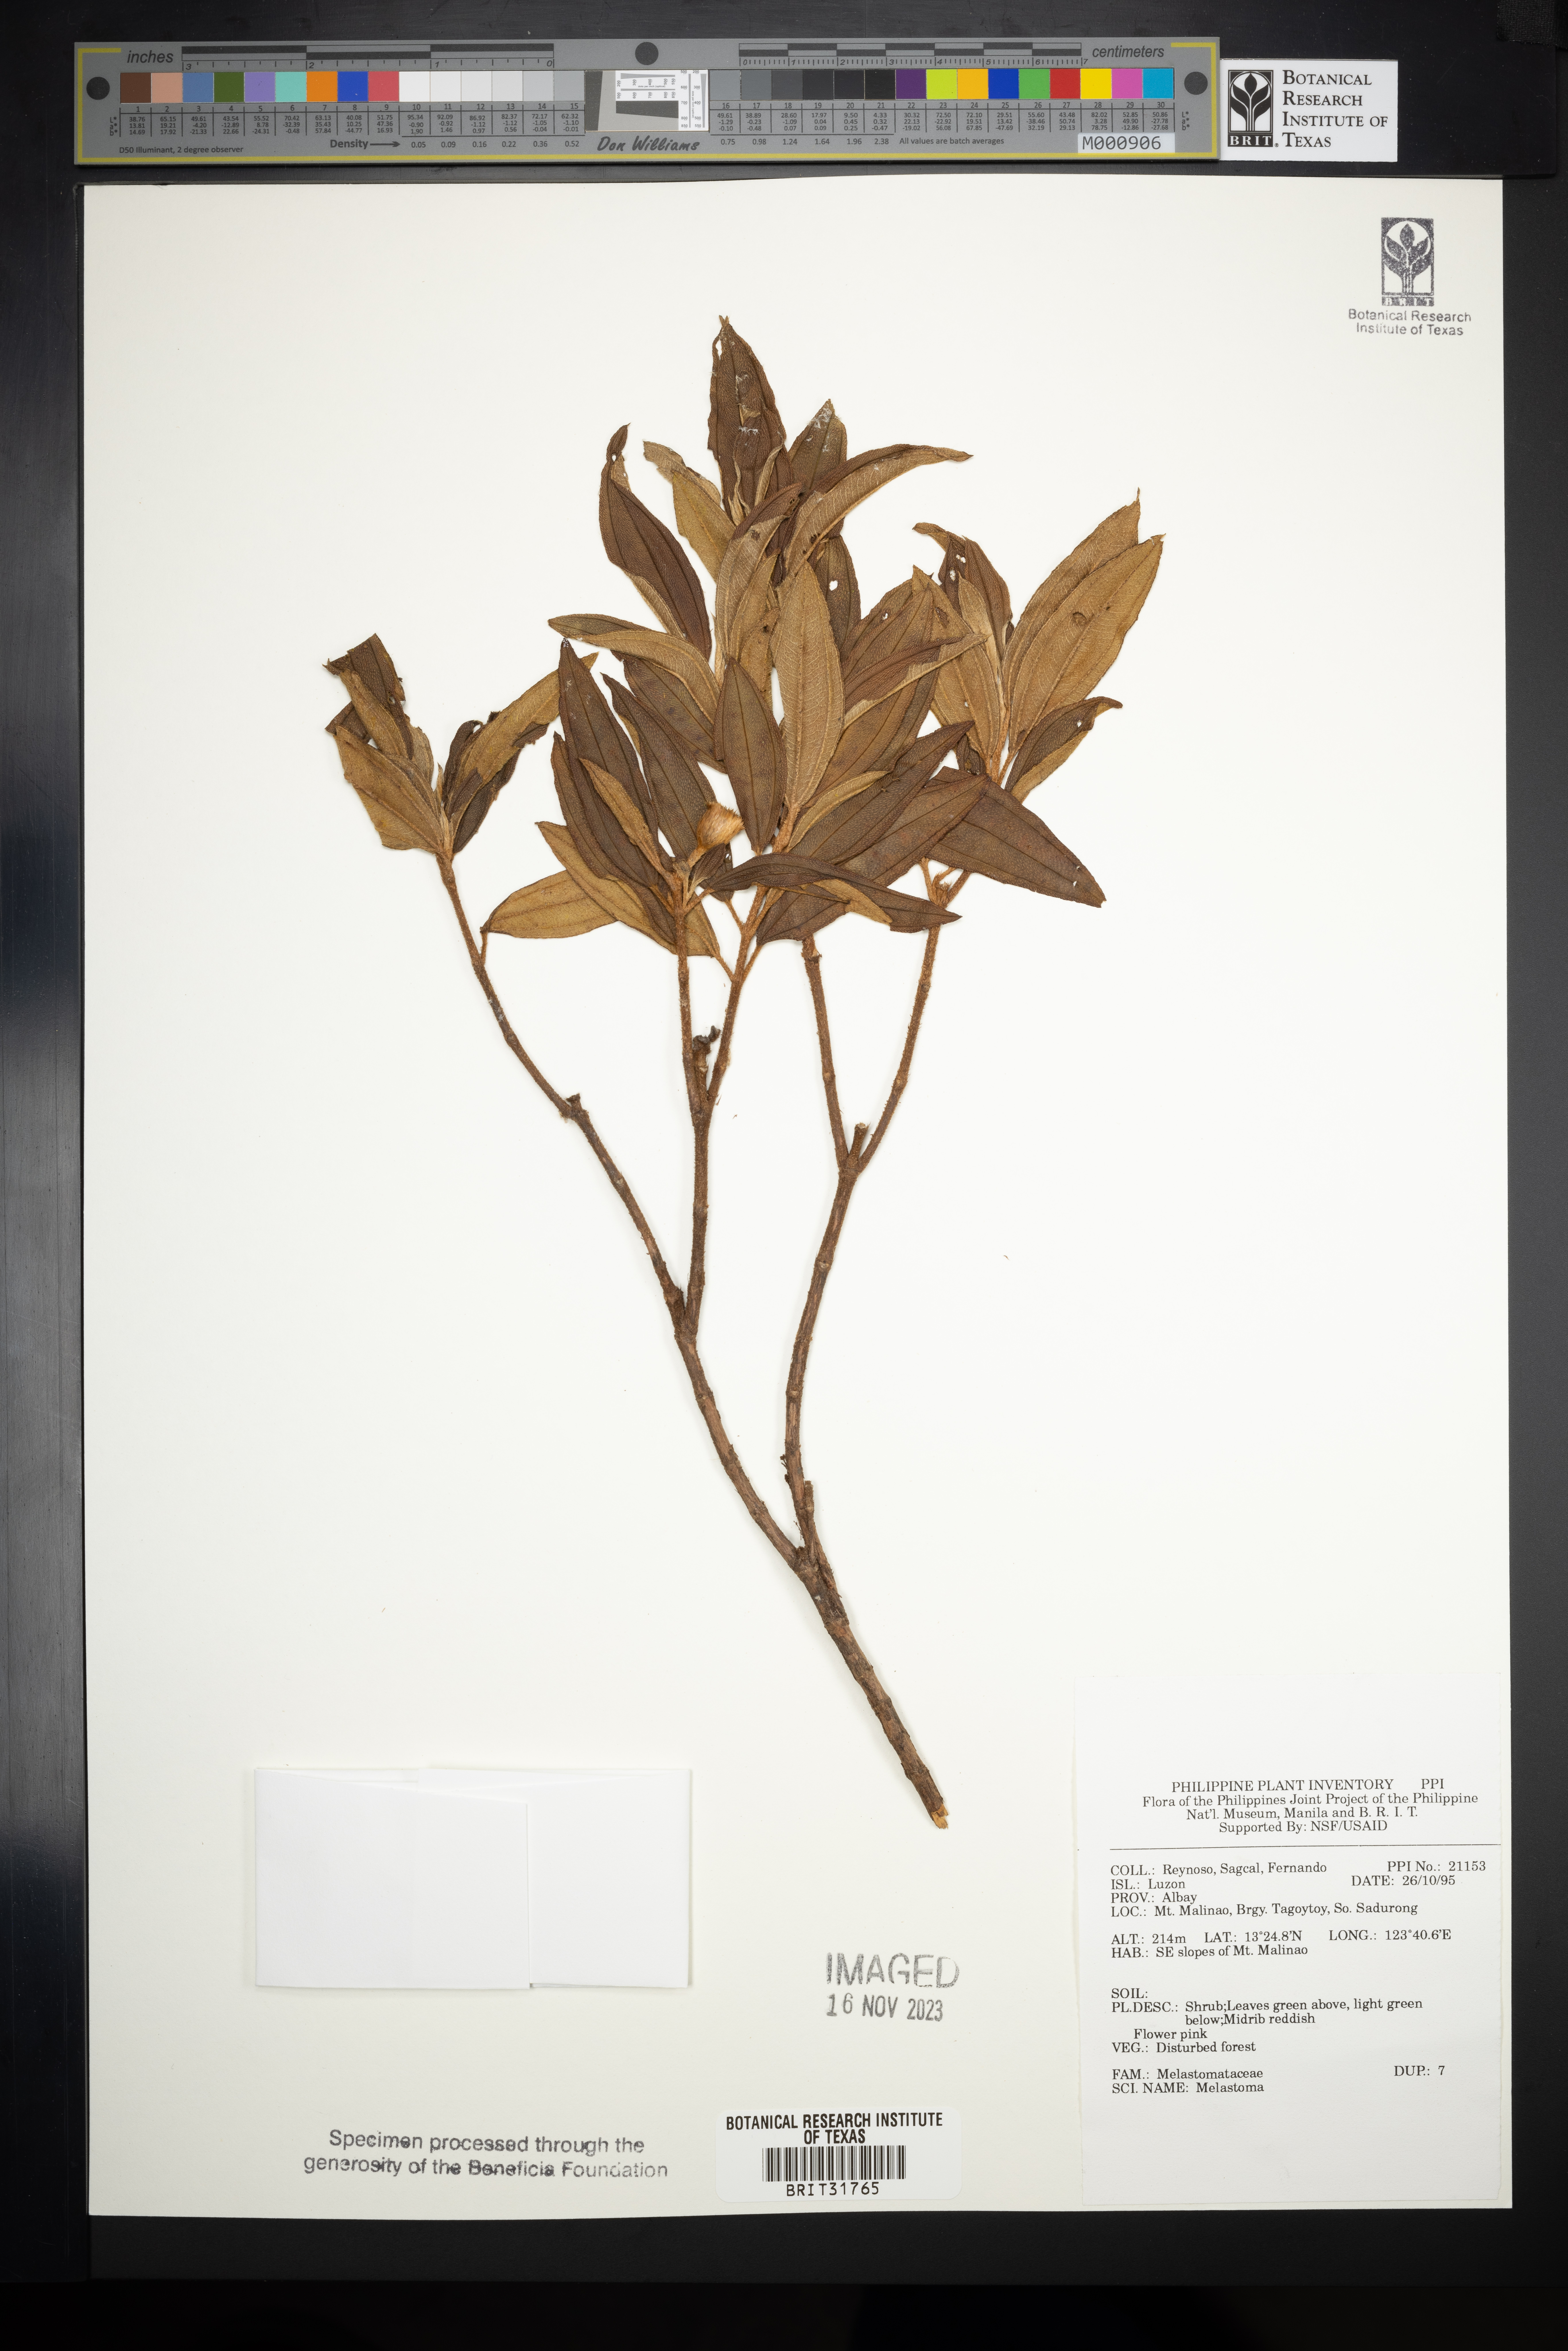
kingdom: Plantae
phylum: Tracheophyta
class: Magnoliopsida
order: Myrtales
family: Melastomataceae
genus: Melastoma
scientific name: Melastoma
